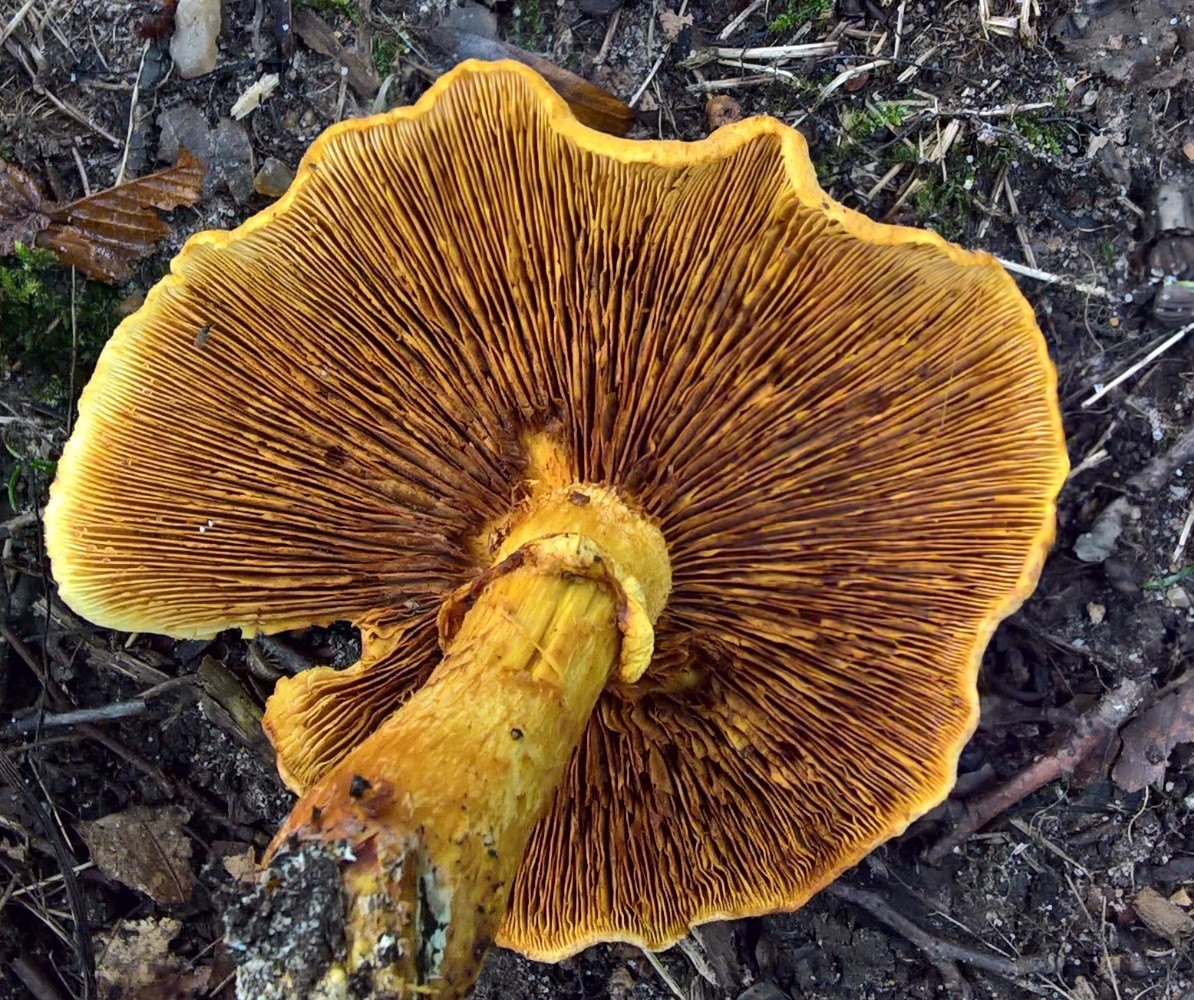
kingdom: Fungi
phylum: Basidiomycota
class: Agaricomycetes
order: Agaricales
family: Hymenogastraceae
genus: Gymnopilus
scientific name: Gymnopilus spectabilis
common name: fibret flammehat
